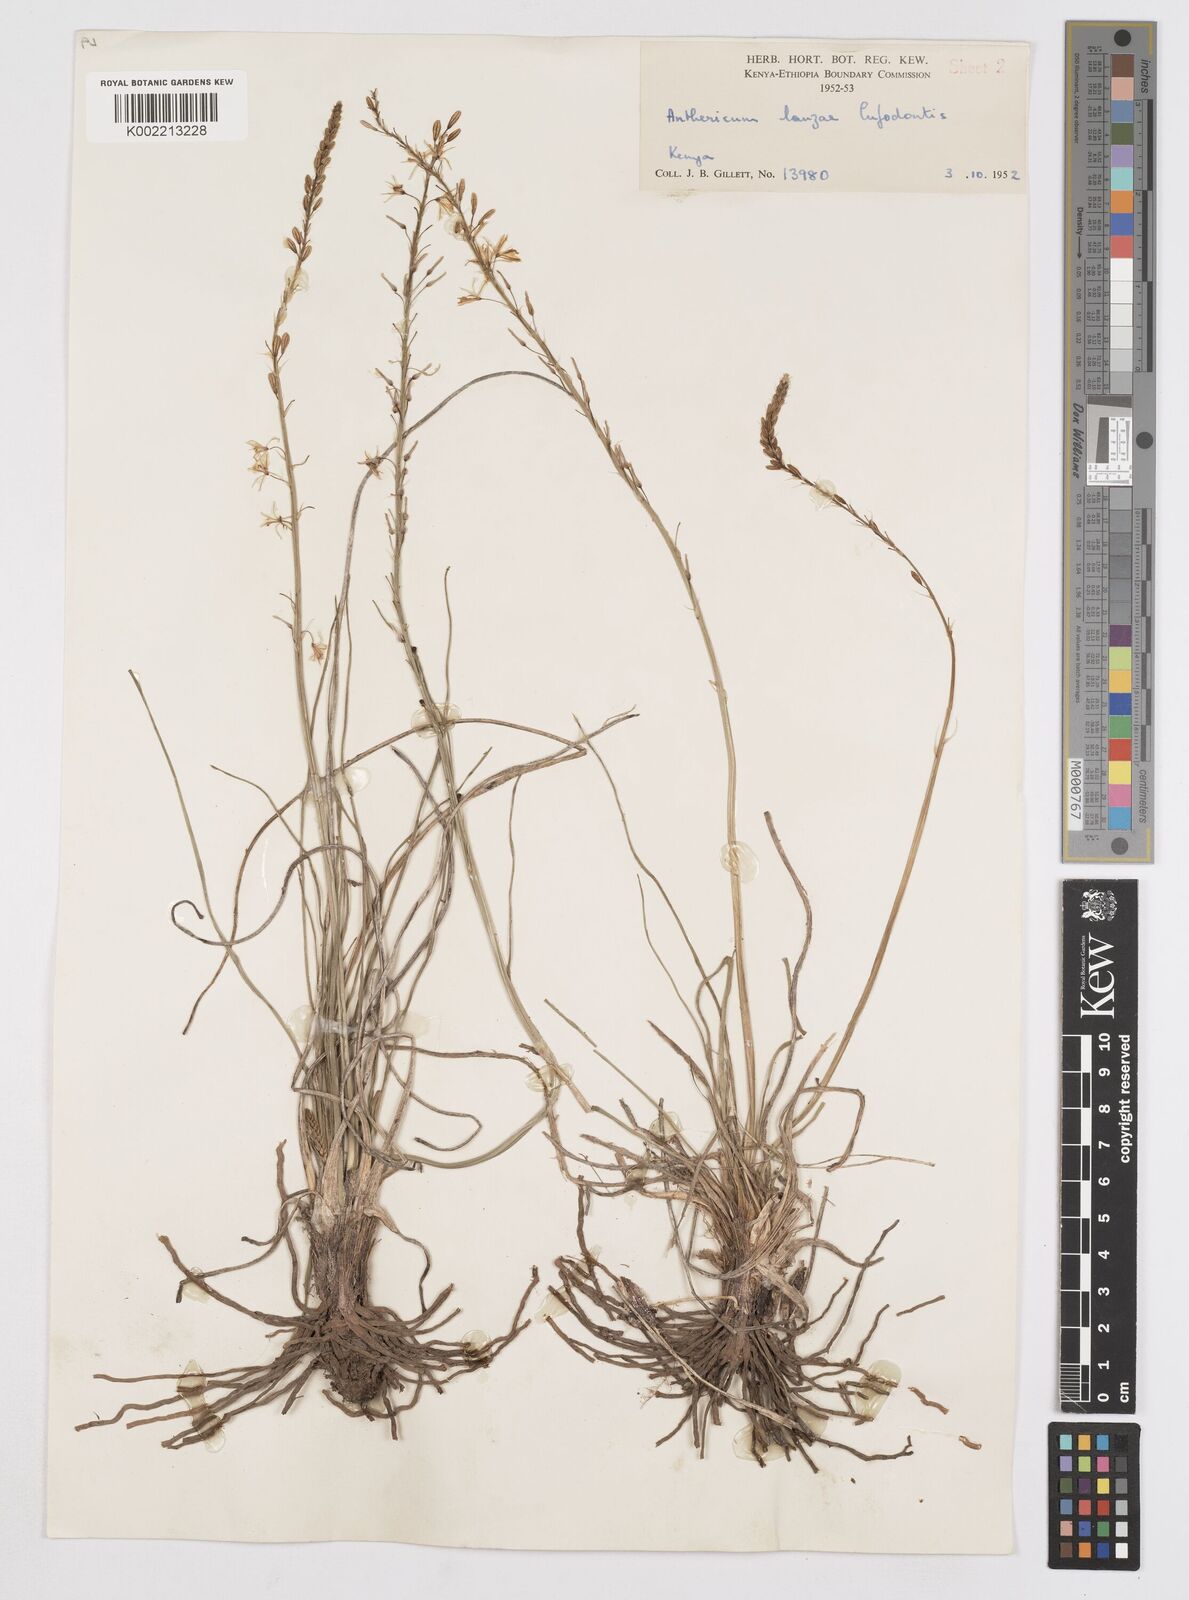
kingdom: Plantae
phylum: Tracheophyta
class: Liliopsida
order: Asparagales
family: Asphodelaceae
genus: Trachyandra
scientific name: Trachyandra saltii
